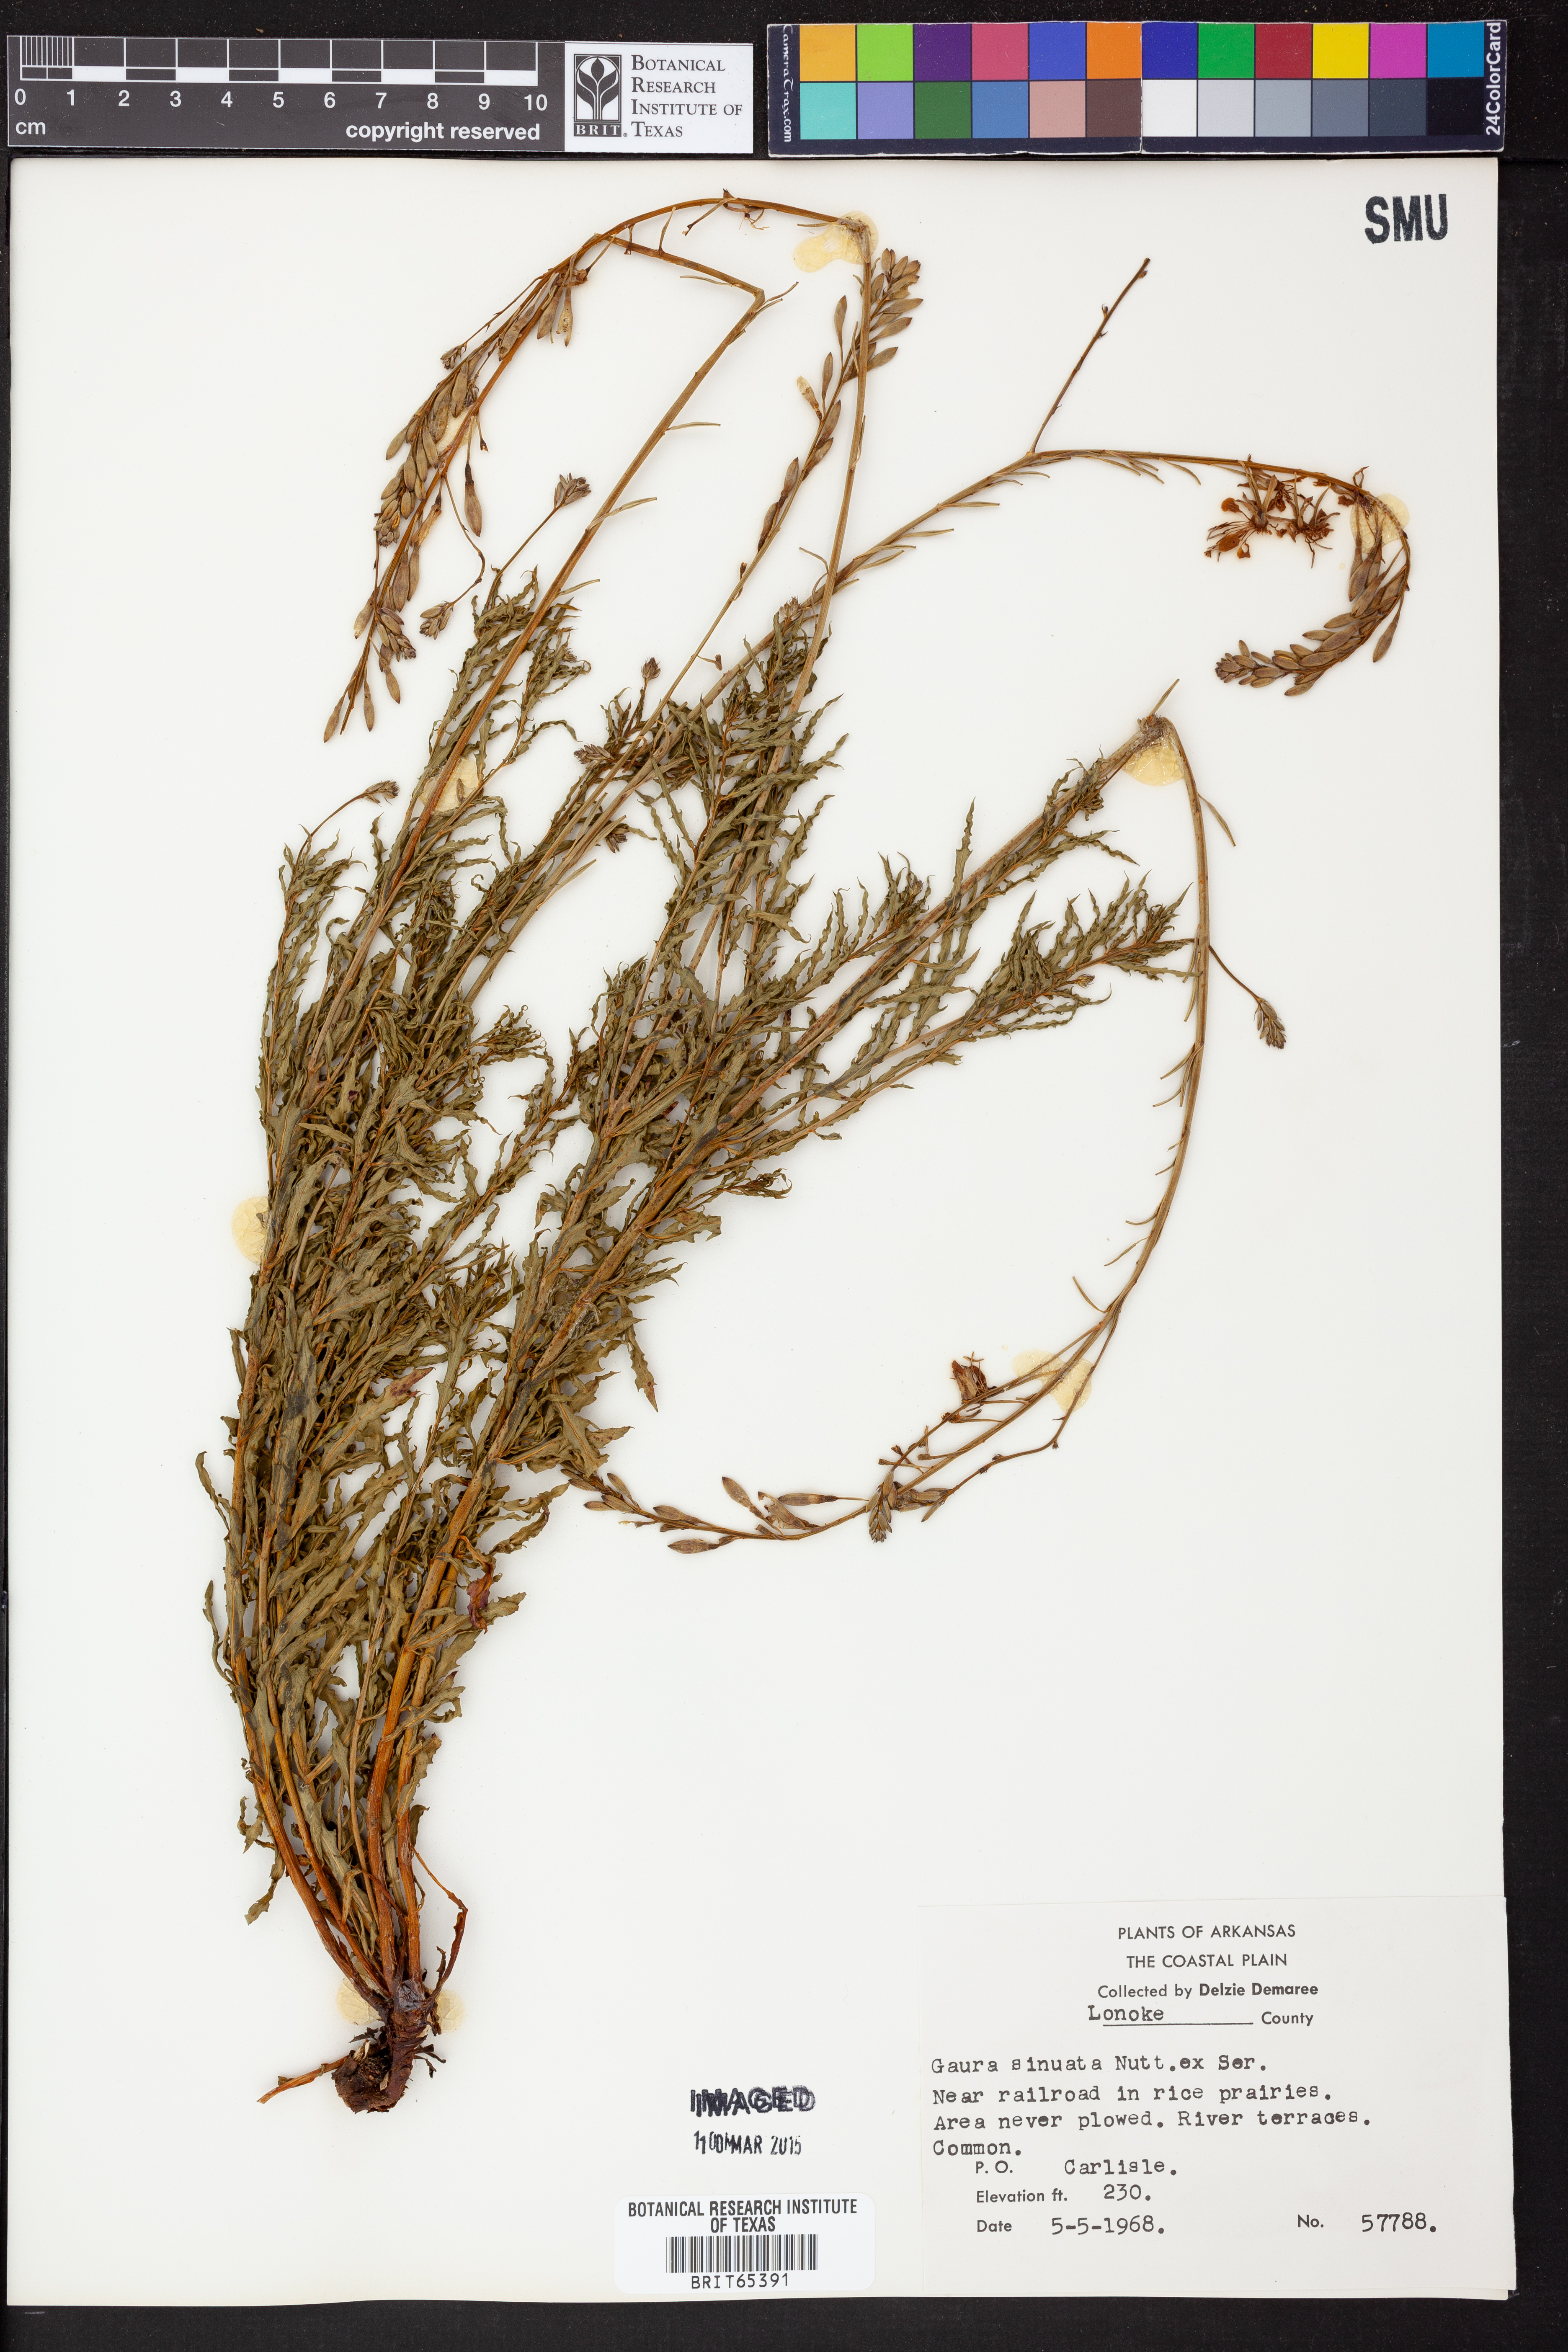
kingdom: Plantae
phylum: Tracheophyta
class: Magnoliopsida
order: Myrtales
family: Onagraceae
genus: Oenothera
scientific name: Oenothera sinuosa
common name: Wavyleaf beeblossom
